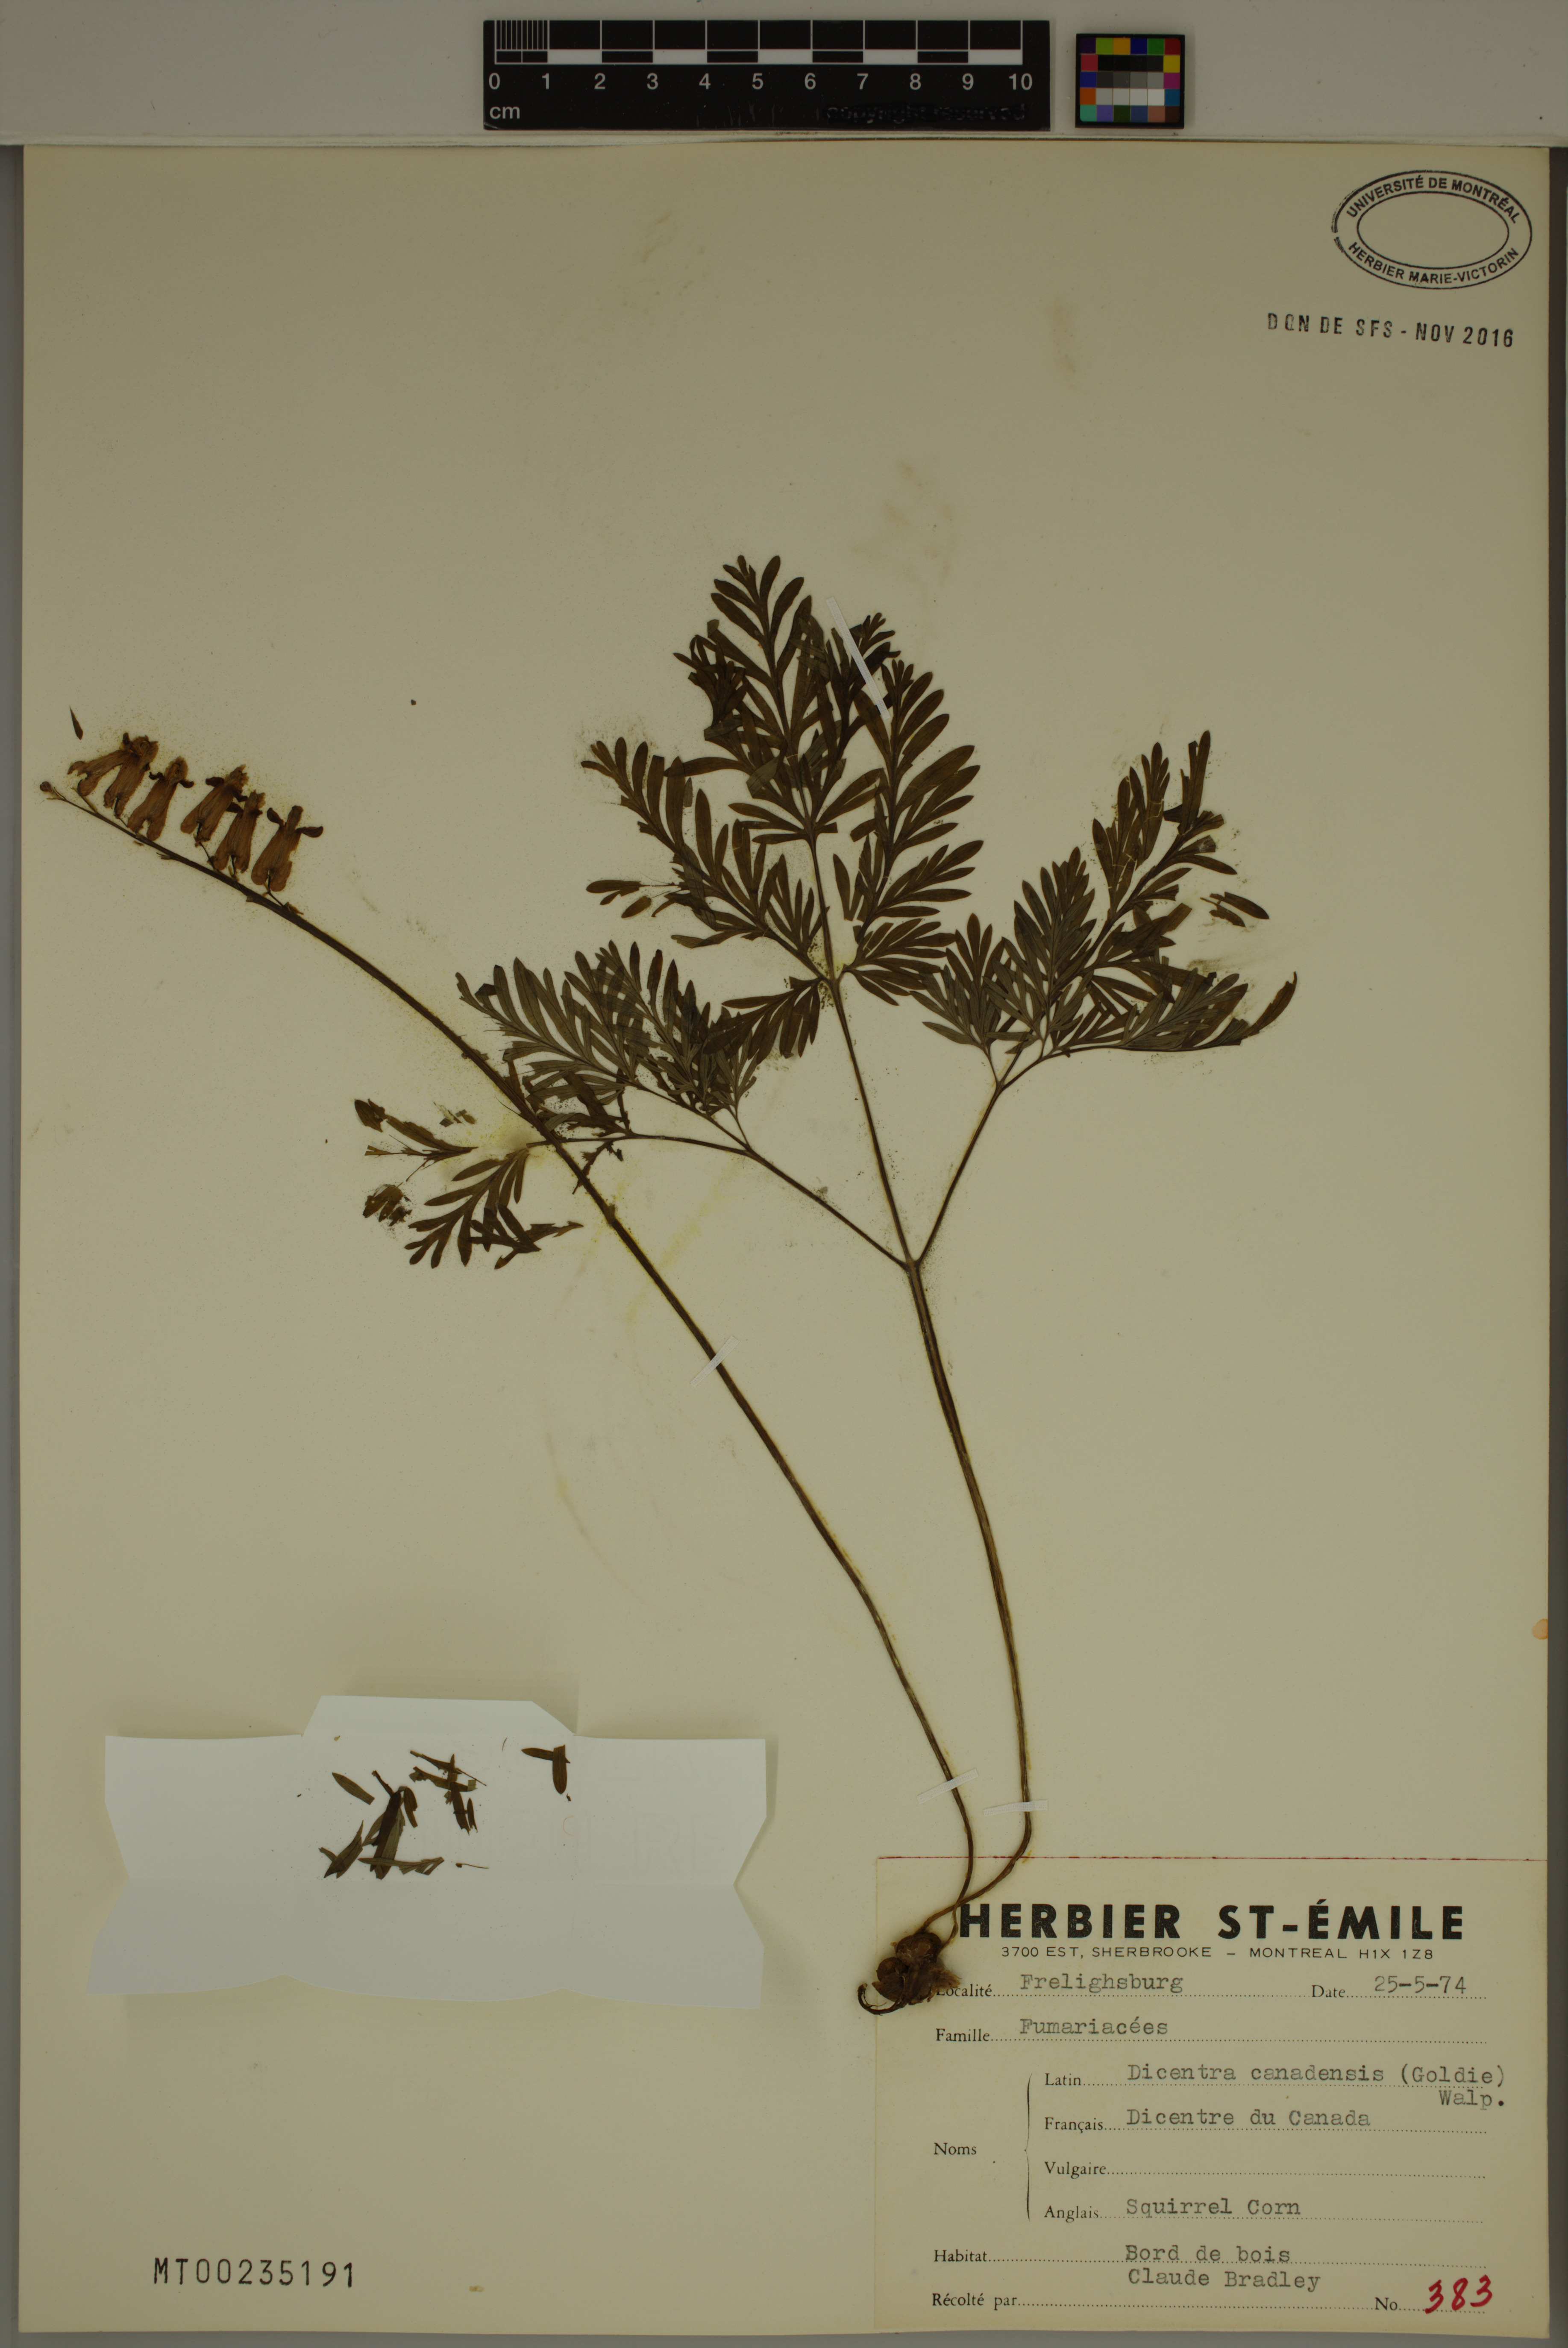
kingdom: Plantae
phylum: Tracheophyta
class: Magnoliopsida
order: Ranunculales
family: Papaveraceae
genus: Dicentra
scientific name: Dicentra canadensis
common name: Squirrel-corn
